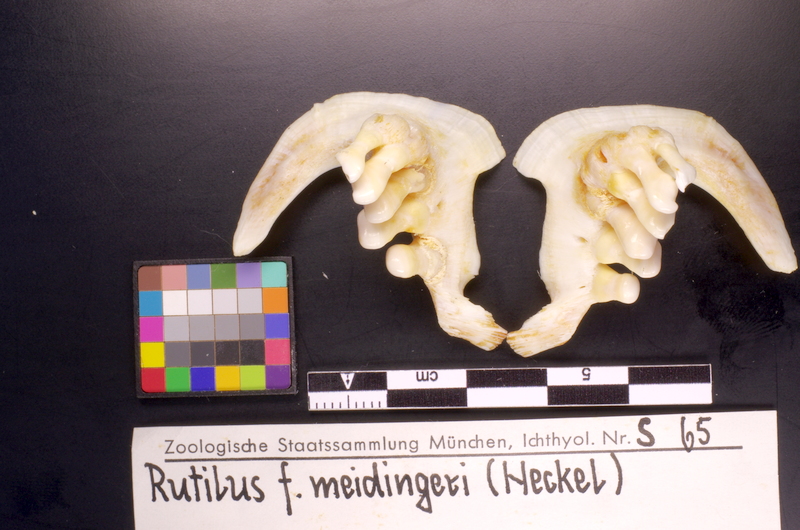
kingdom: Animalia
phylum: Chordata
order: Cypriniformes
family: Cyprinidae
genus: Rutilus
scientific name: Rutilus meidingeri
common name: Perlfisch
